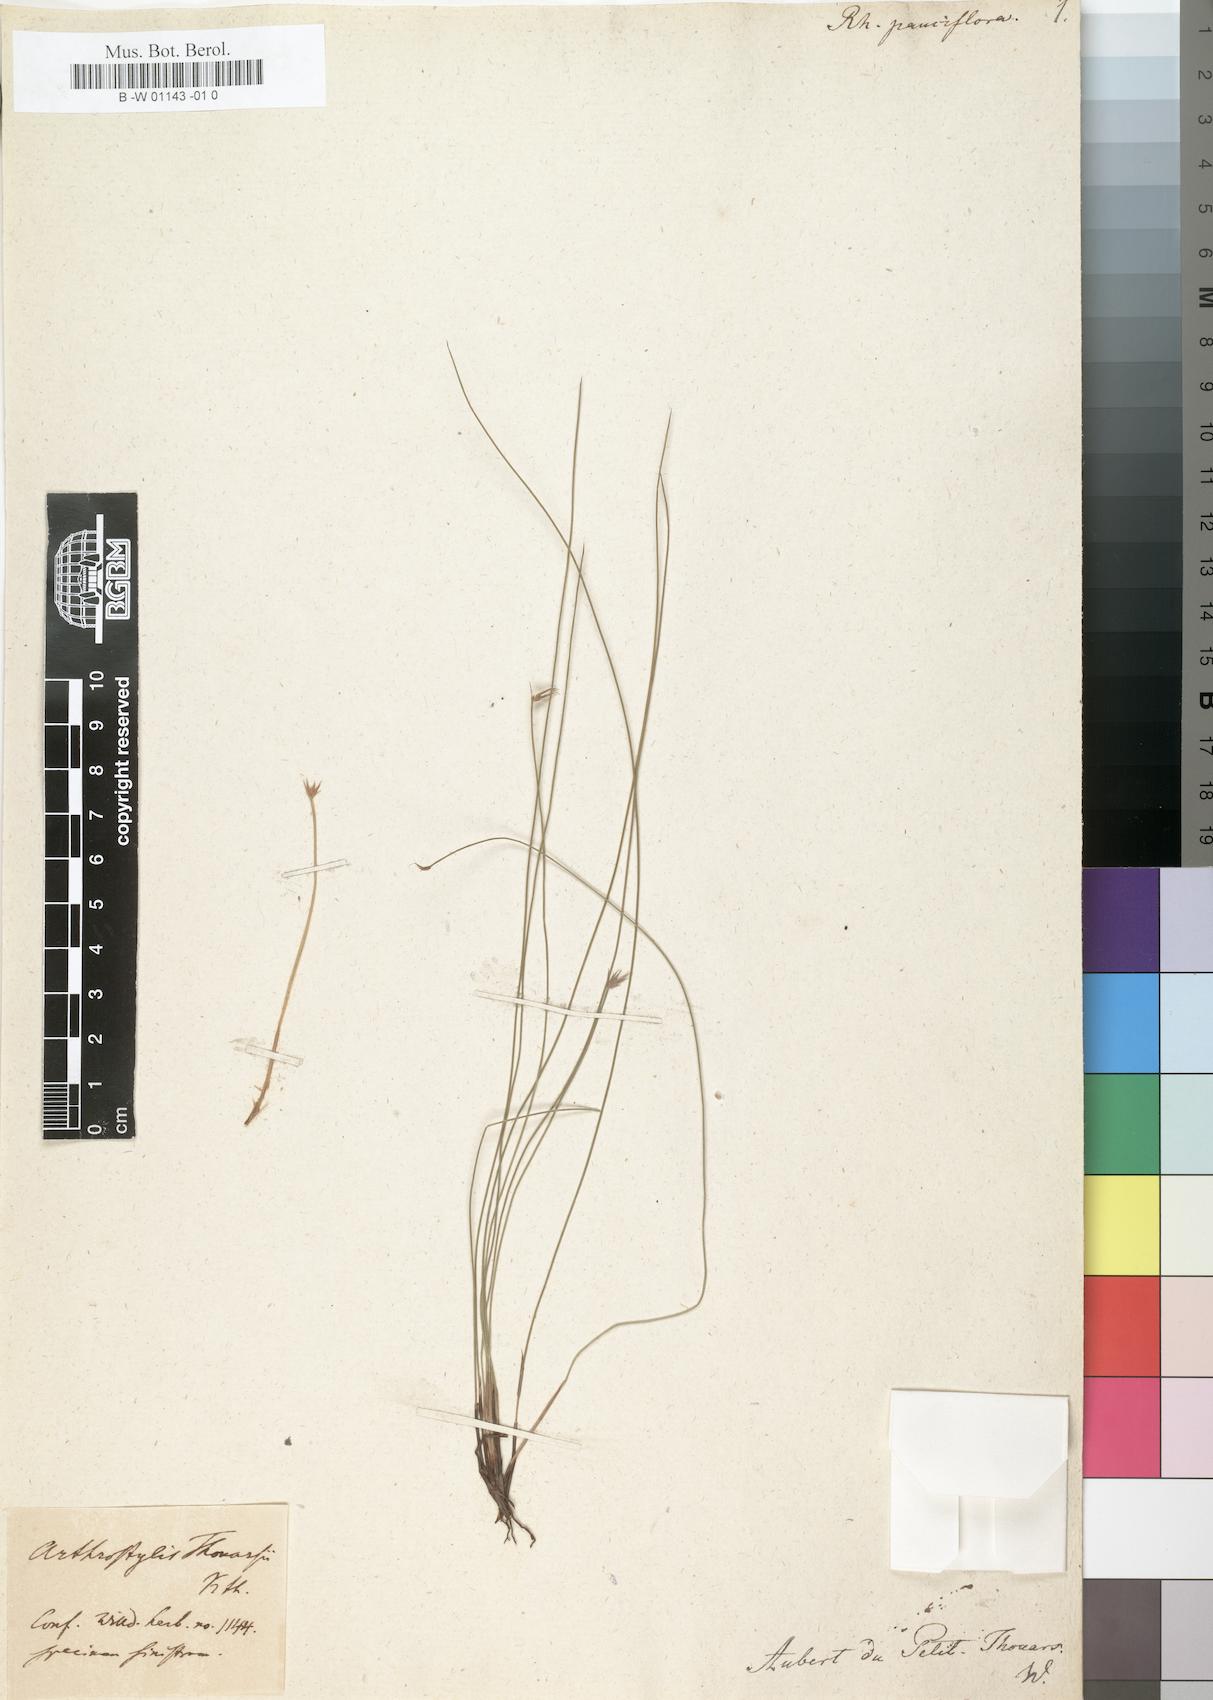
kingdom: Plantae
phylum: Tracheophyta
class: Liliopsida
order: Poales
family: Cyperaceae
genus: Actinoschoenus
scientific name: Actinoschoenus aphyllus
